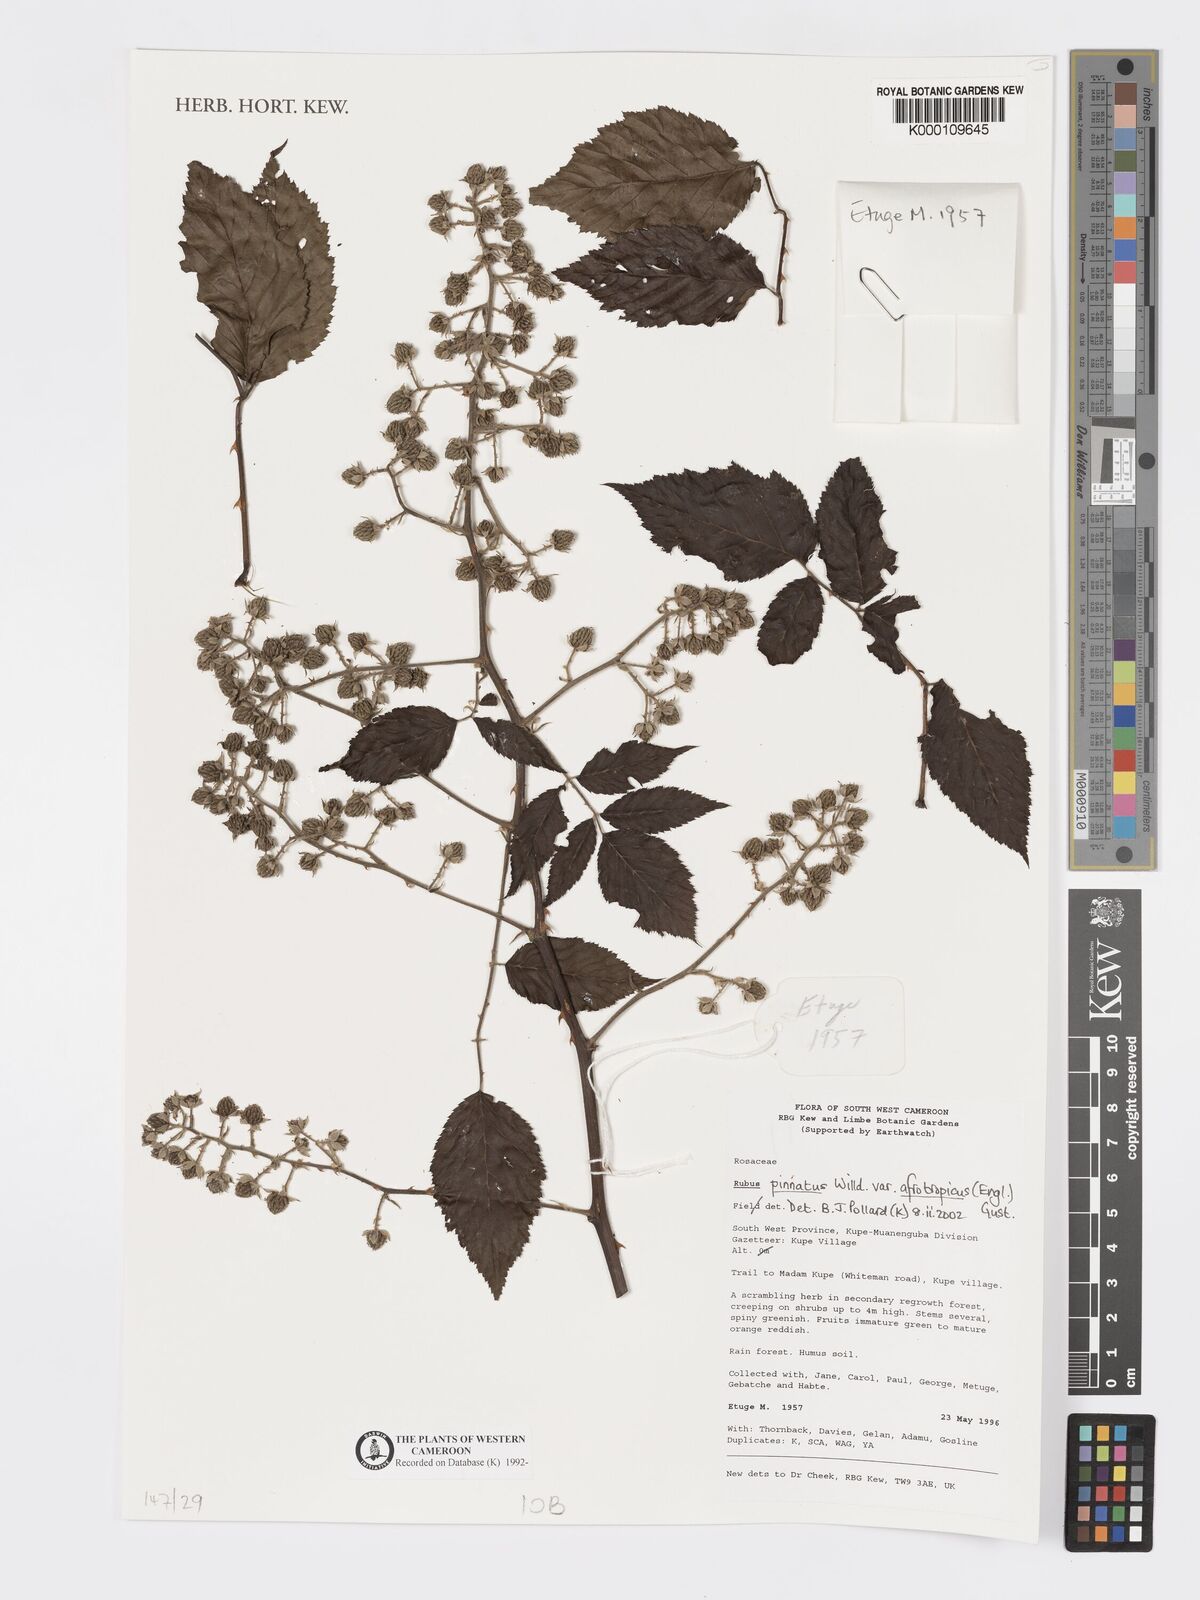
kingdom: Plantae
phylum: Tracheophyta
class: Magnoliopsida
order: Rosales
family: Rosaceae
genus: Rubus
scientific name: Rubus pinnatus
